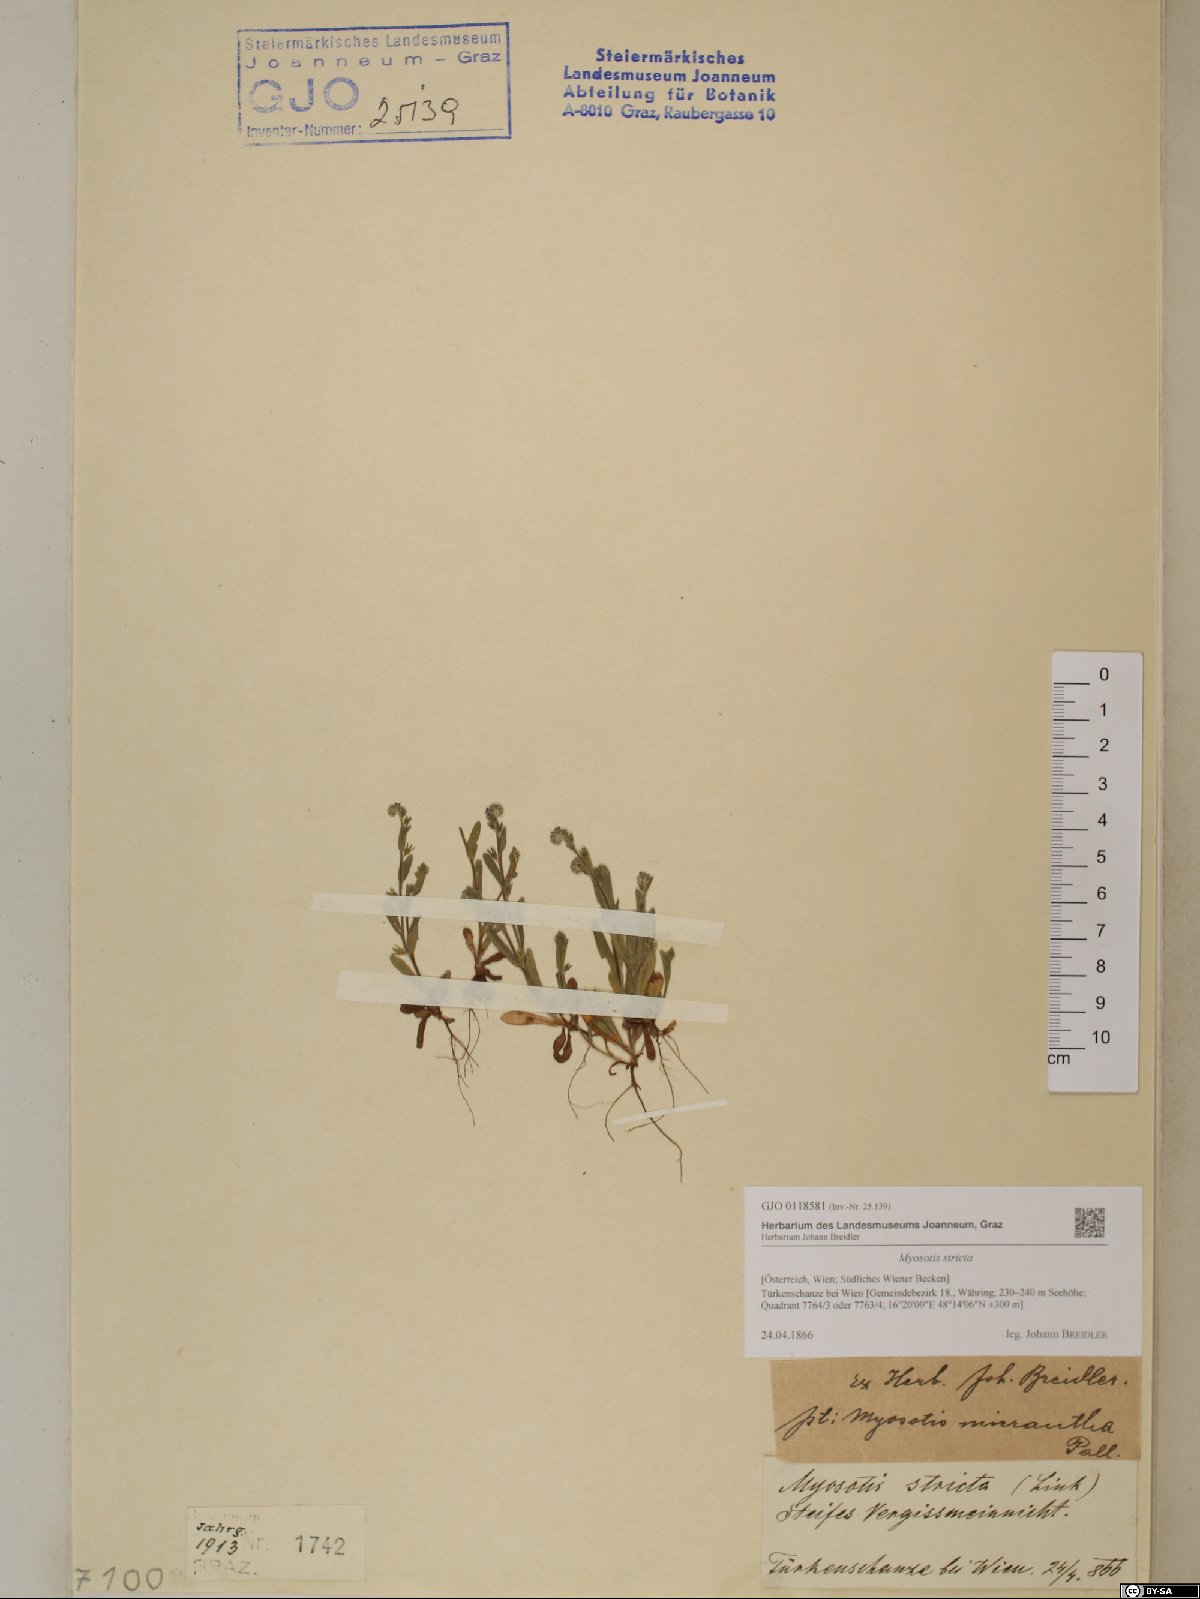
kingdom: Plantae
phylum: Tracheophyta
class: Magnoliopsida
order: Boraginales
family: Boraginaceae
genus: Myosotis
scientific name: Myosotis stricta
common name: Strict forget-me-not
